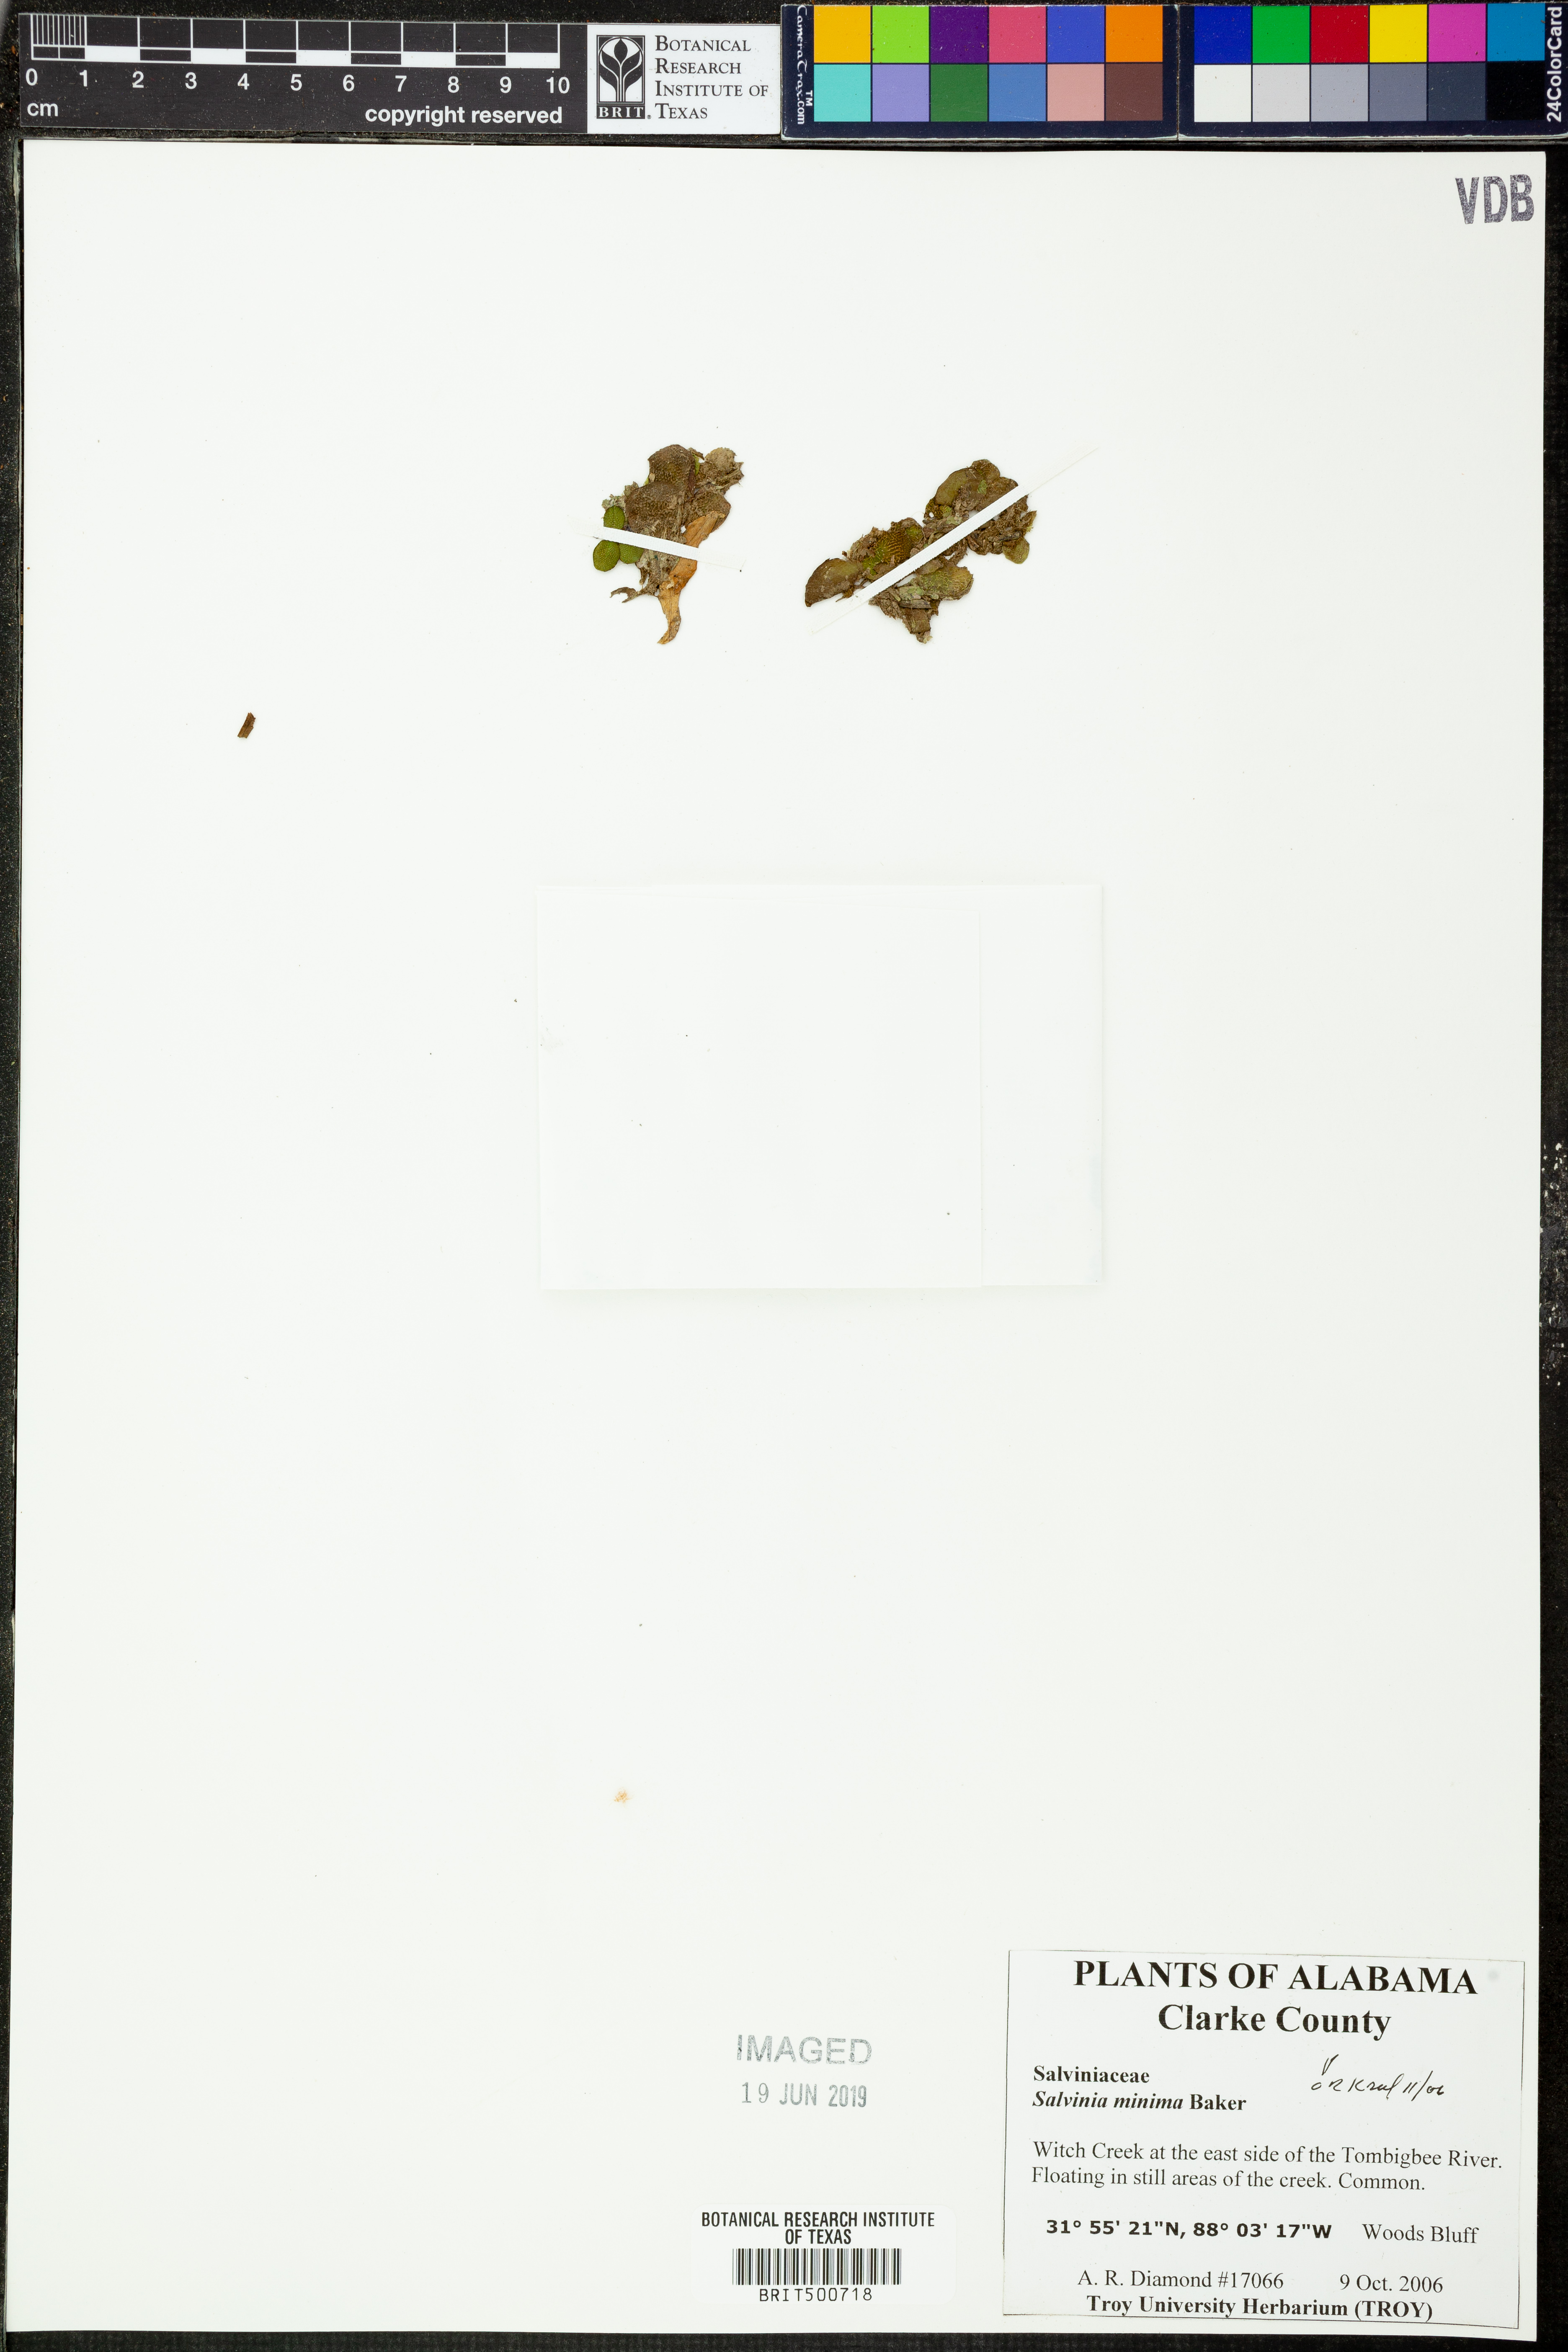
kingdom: Plantae
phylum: Tracheophyta
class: Polypodiopsida
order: Salviniales
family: Salviniaceae
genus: Salvinia
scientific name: Salvinia minima
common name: Water spangles
